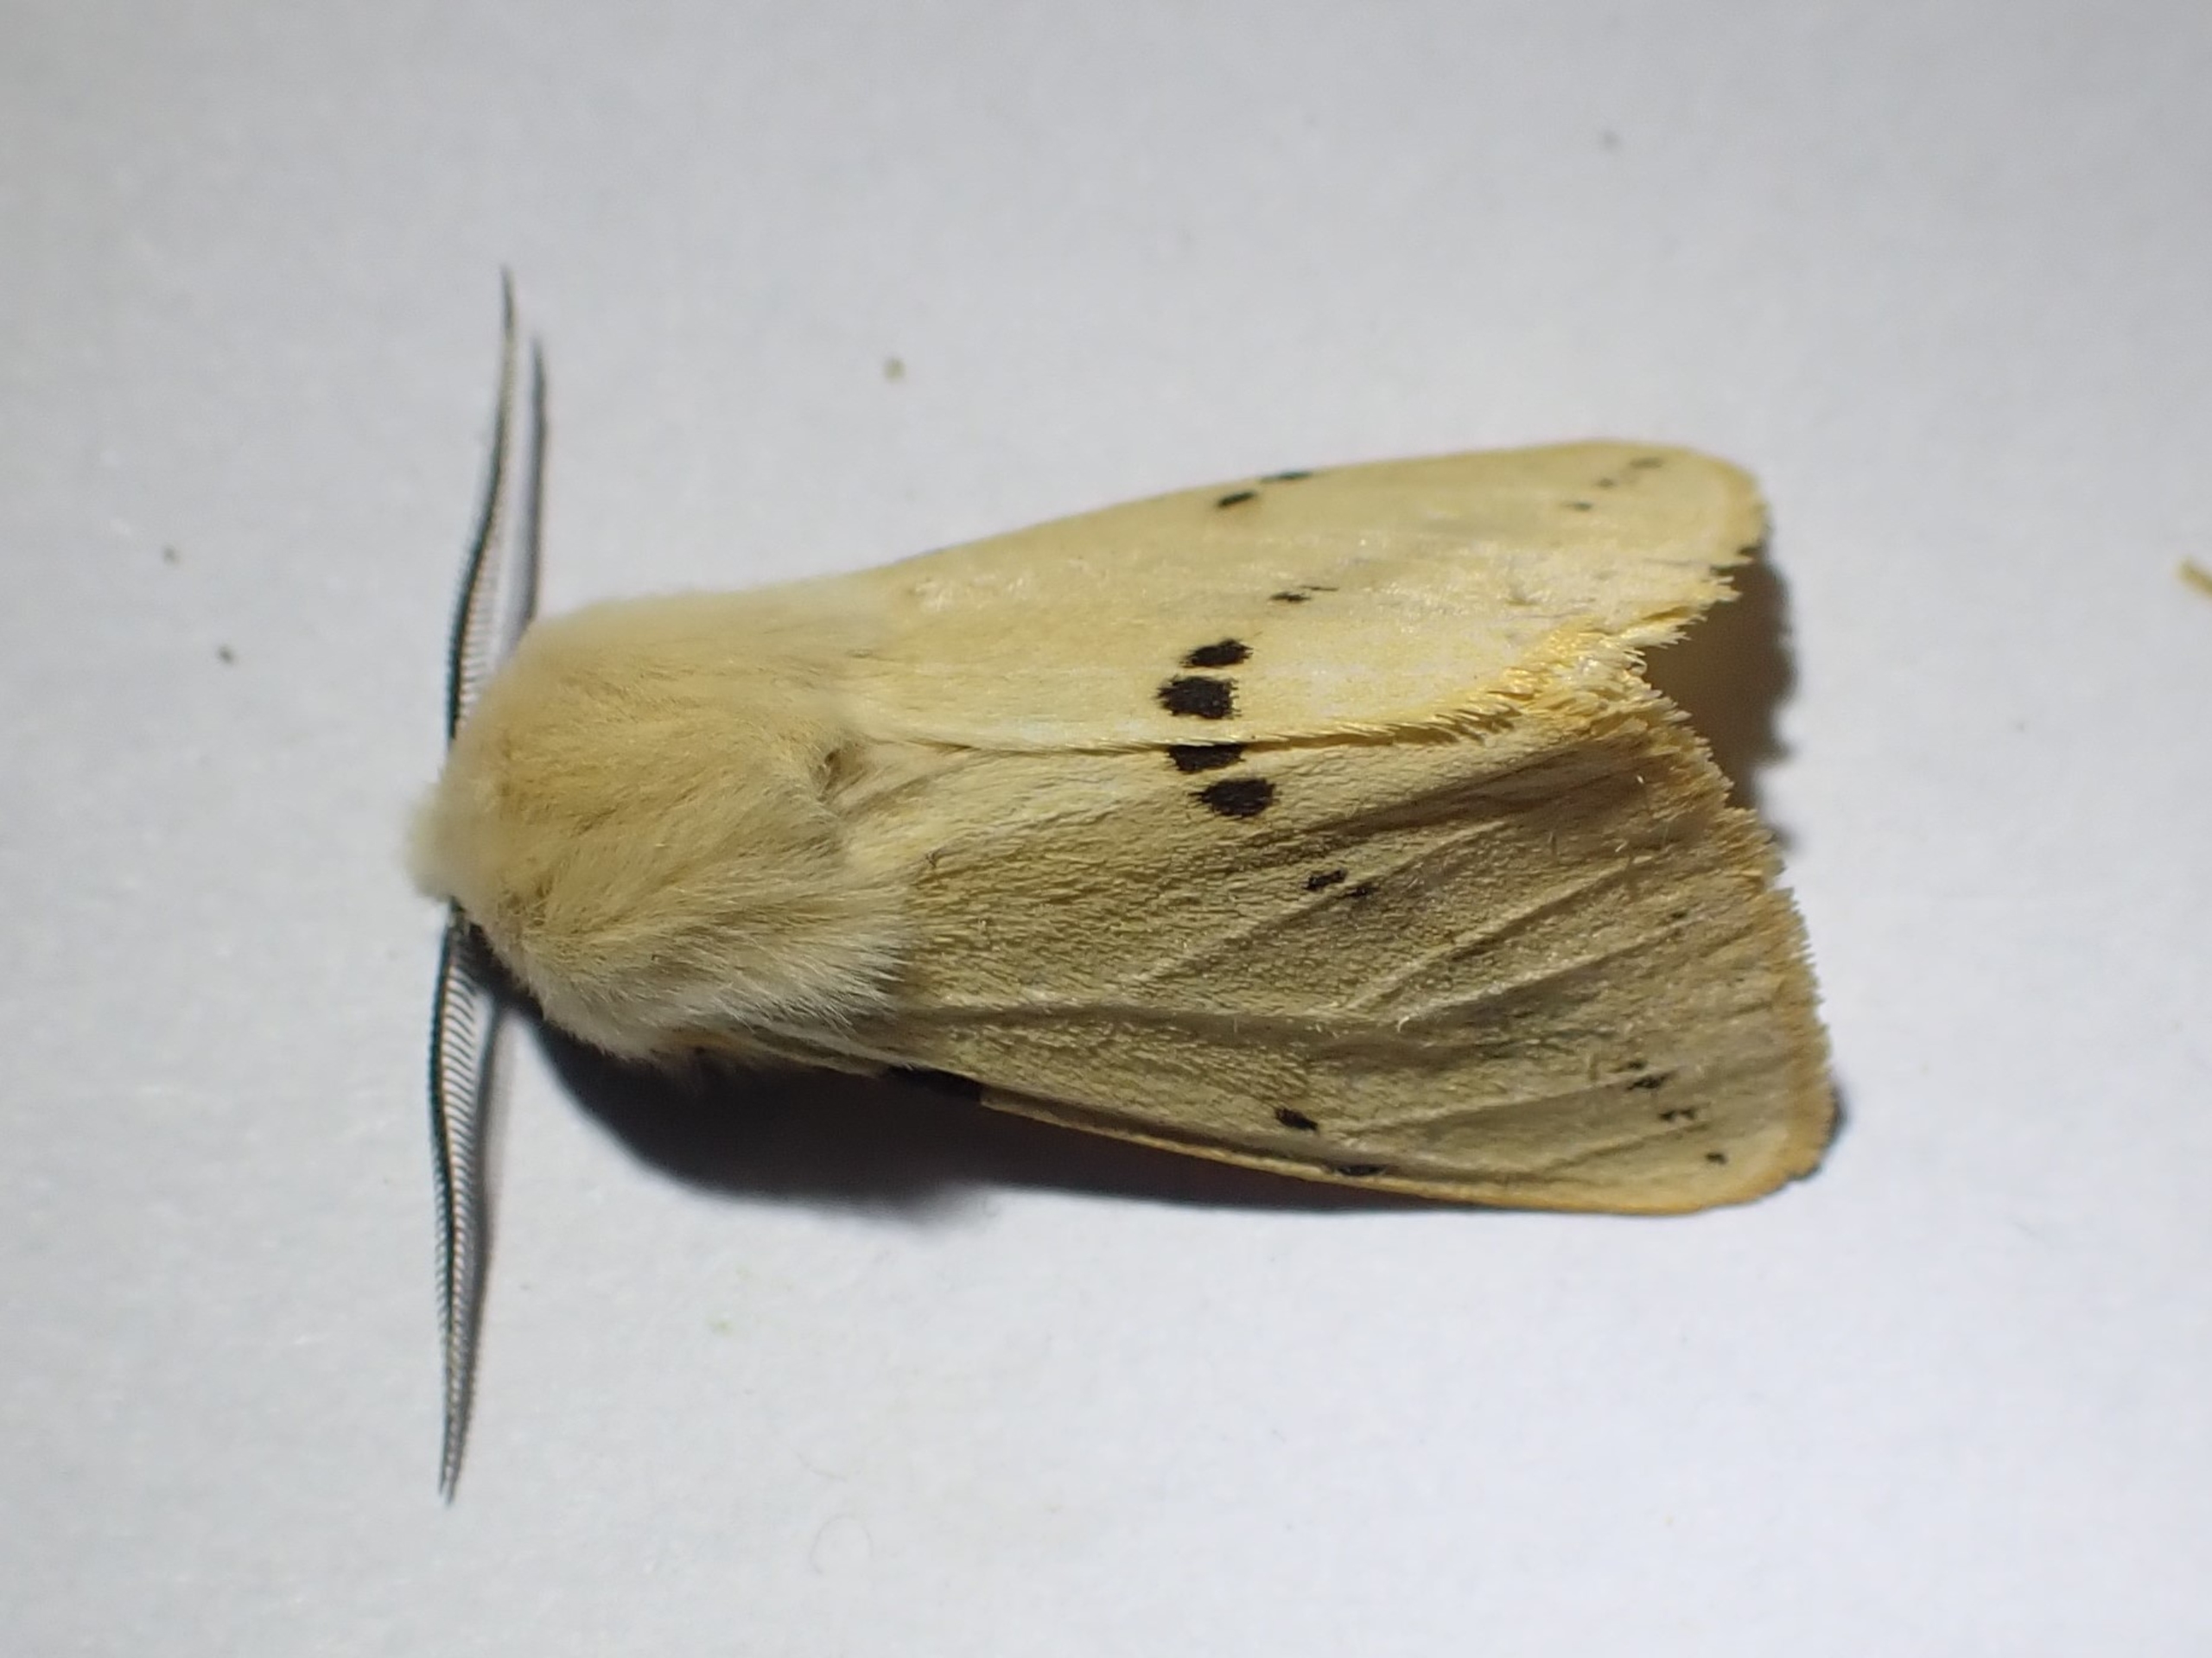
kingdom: Animalia
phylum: Arthropoda
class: Insecta
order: Lepidoptera
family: Erebidae
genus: Spilarctia
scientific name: Spilarctia lutea
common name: Gul tigerspinder
